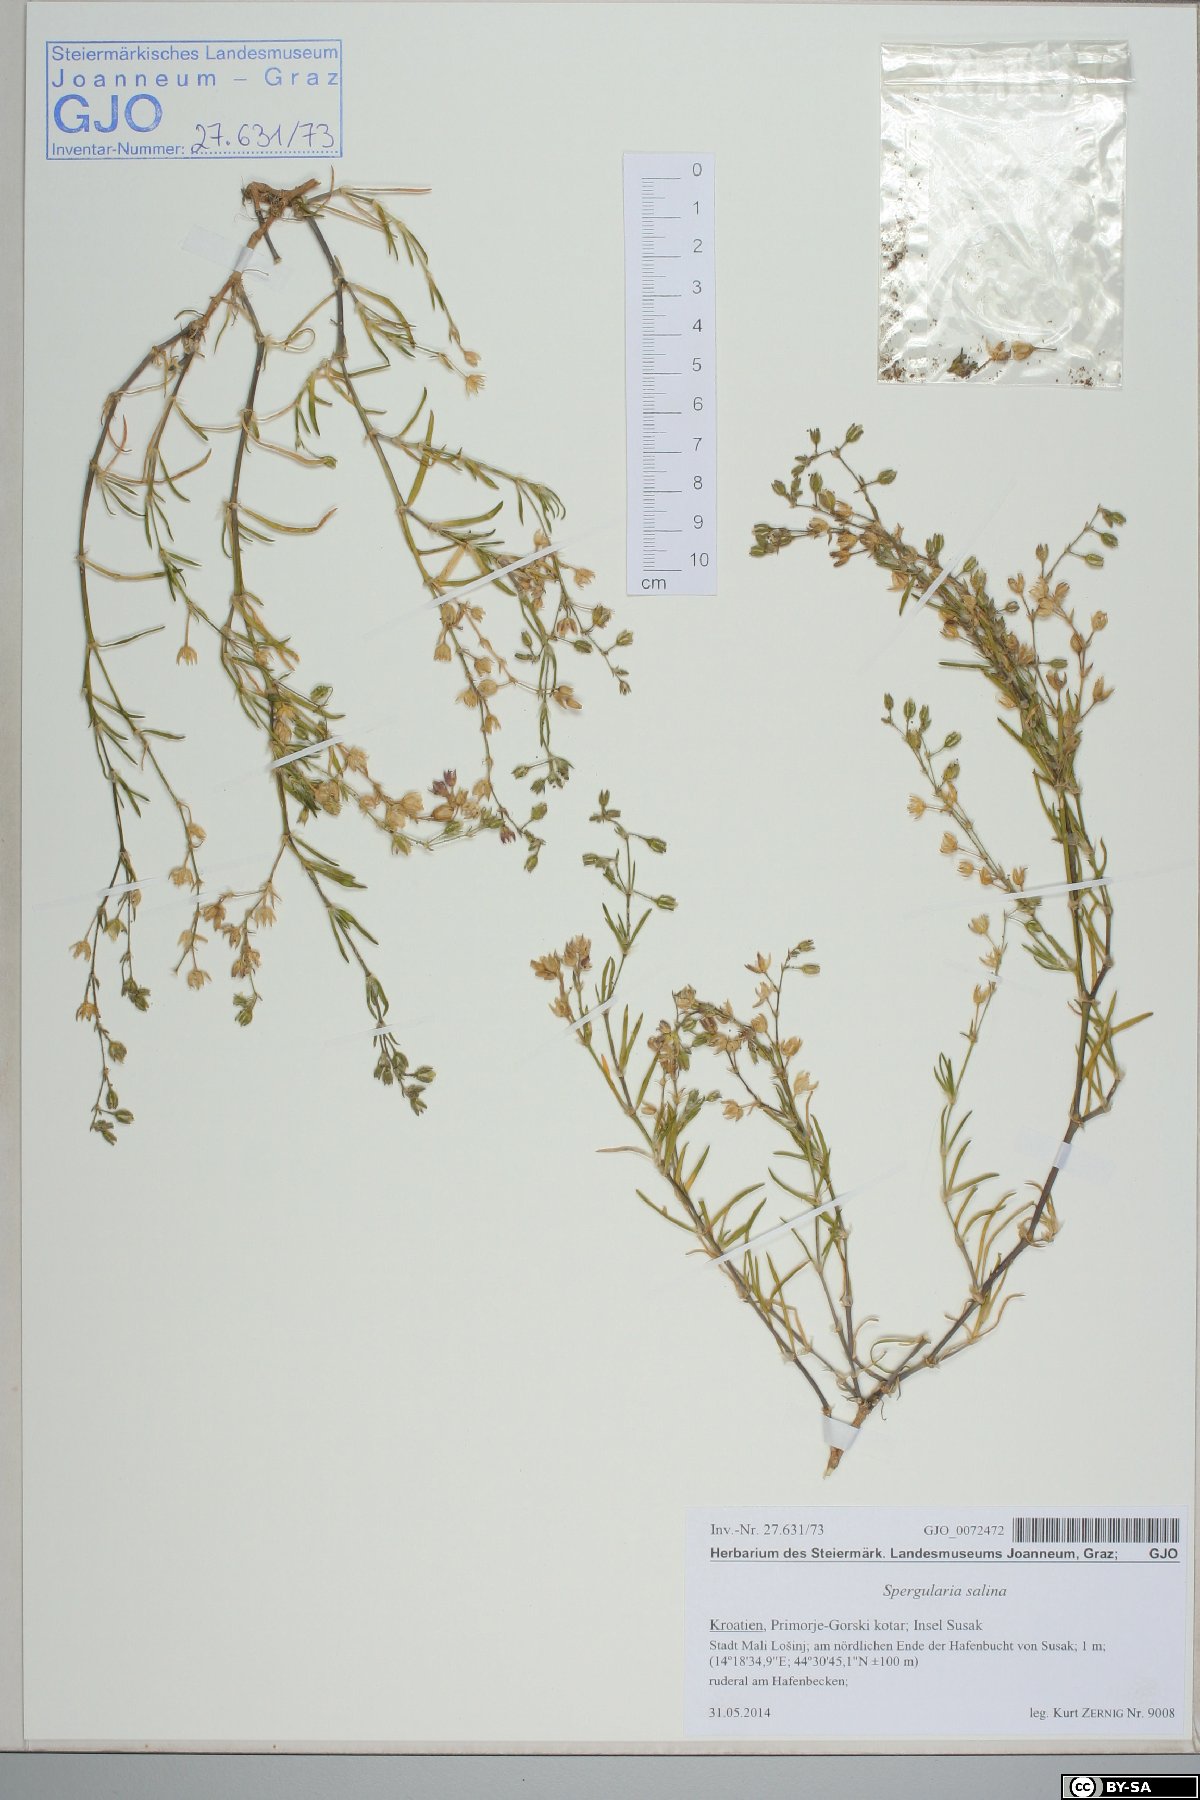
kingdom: Plantae
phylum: Tracheophyta
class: Magnoliopsida
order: Caryophyllales
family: Caryophyllaceae
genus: Spergularia
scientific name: Spergularia marina
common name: Lesser sea-spurrey
